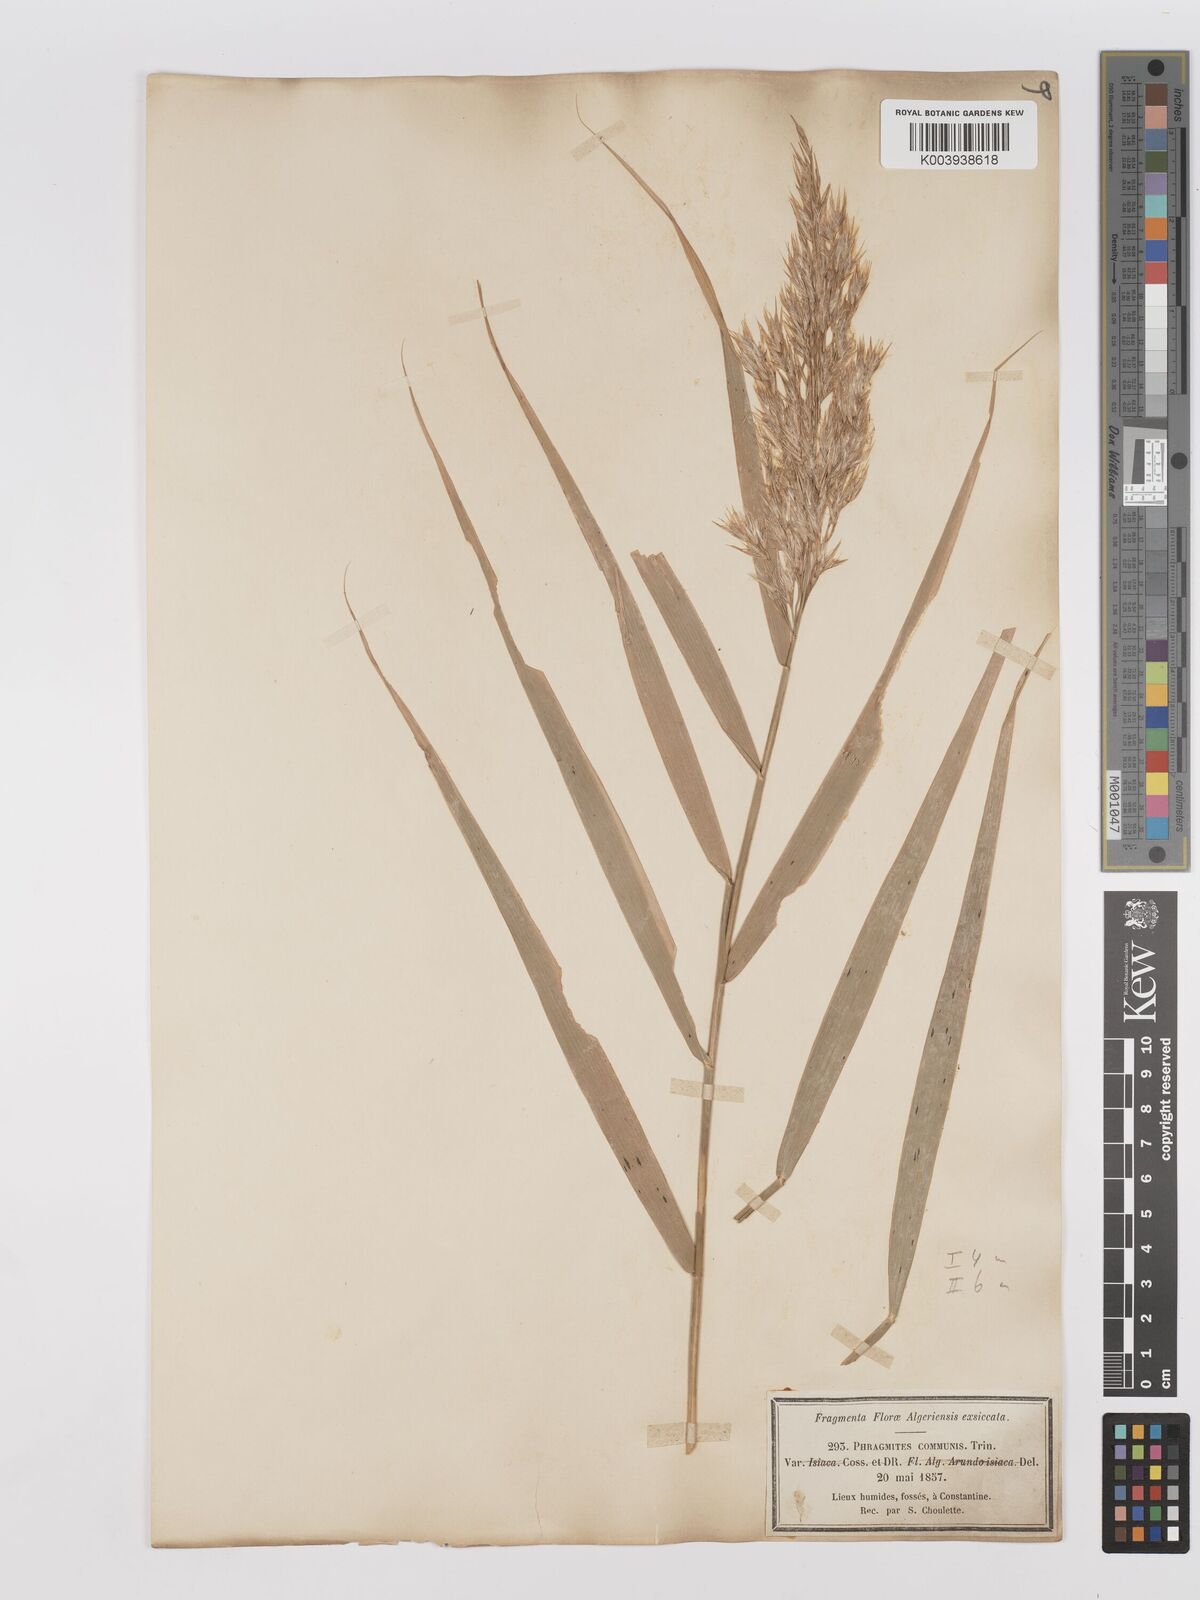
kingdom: Plantae
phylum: Tracheophyta
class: Liliopsida
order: Poales
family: Poaceae
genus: Phragmites
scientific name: Phragmites australis
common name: Common reed
